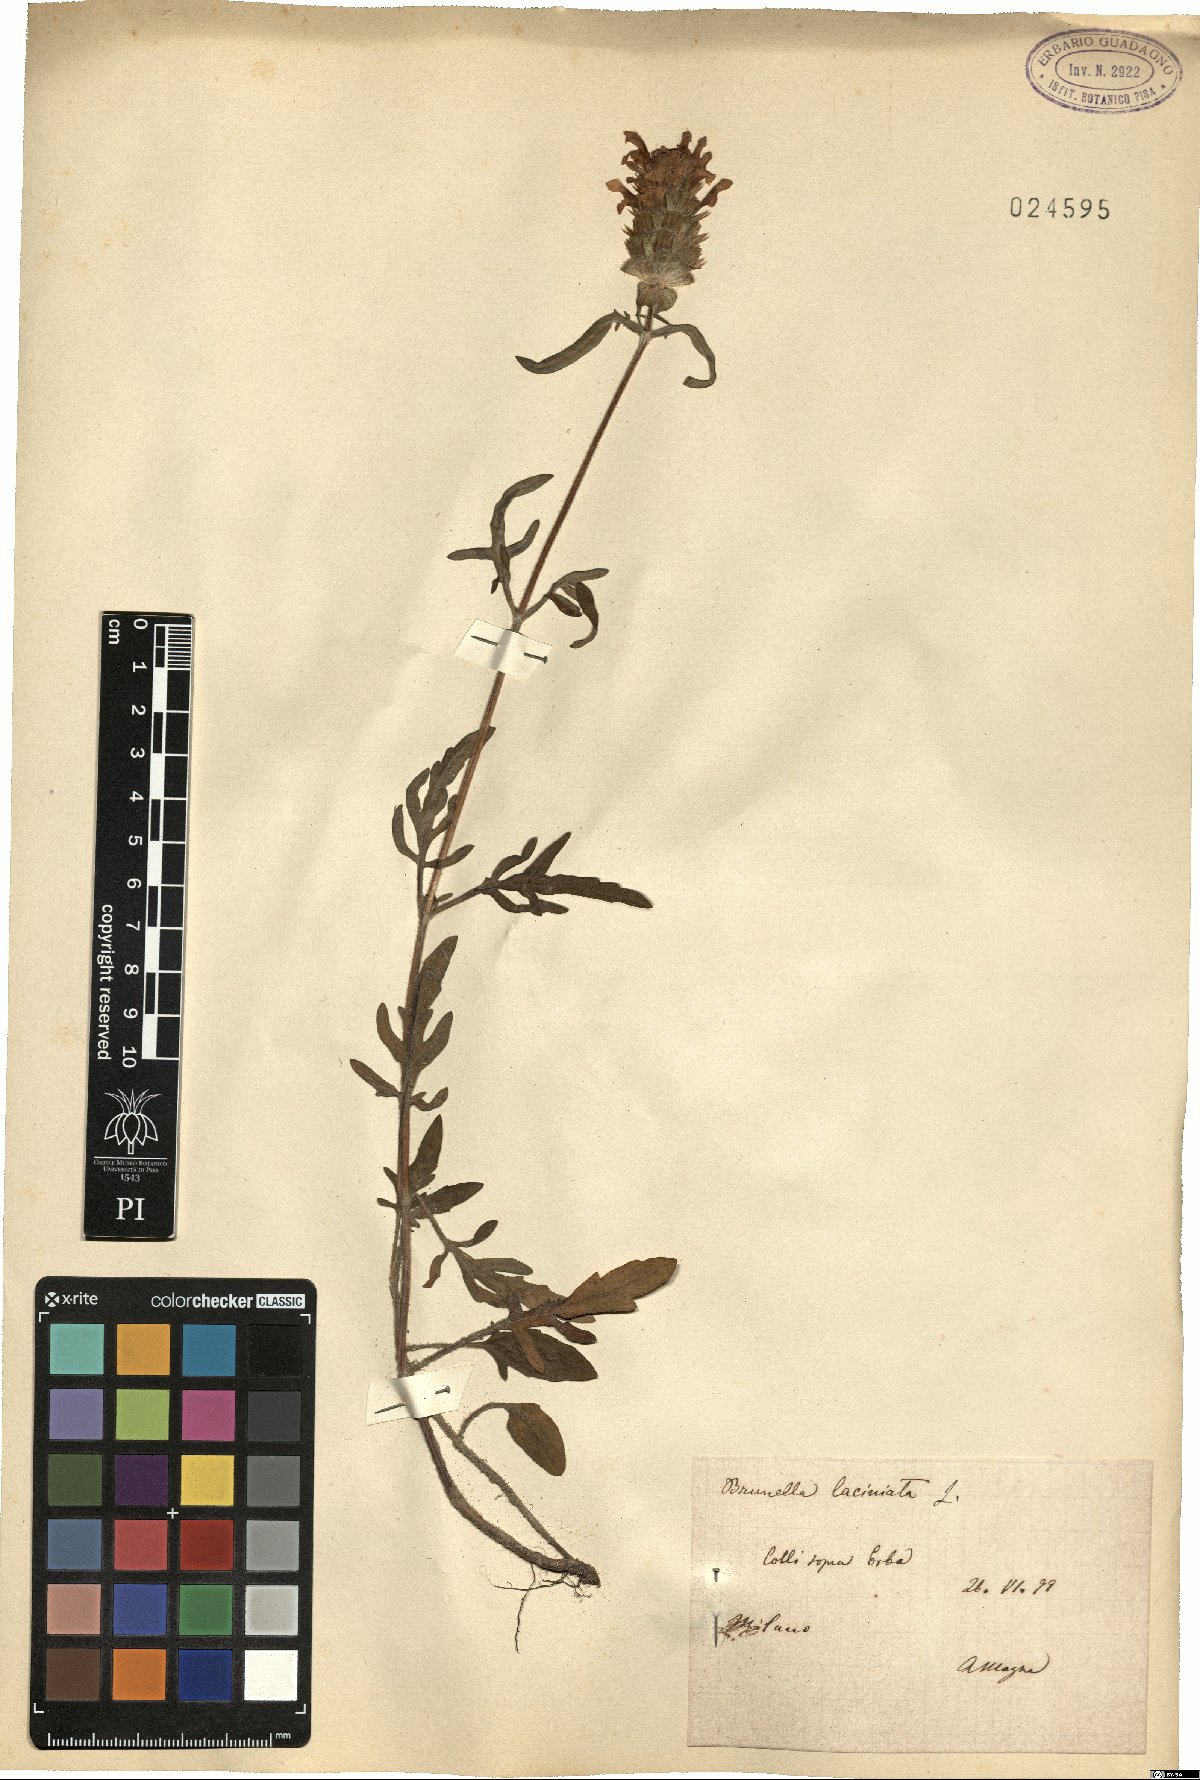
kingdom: Plantae
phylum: Tracheophyta
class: Magnoliopsida
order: Lamiales
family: Lamiaceae
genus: Prunella
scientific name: Prunella laciniata
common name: Cut-leaved selfheal
